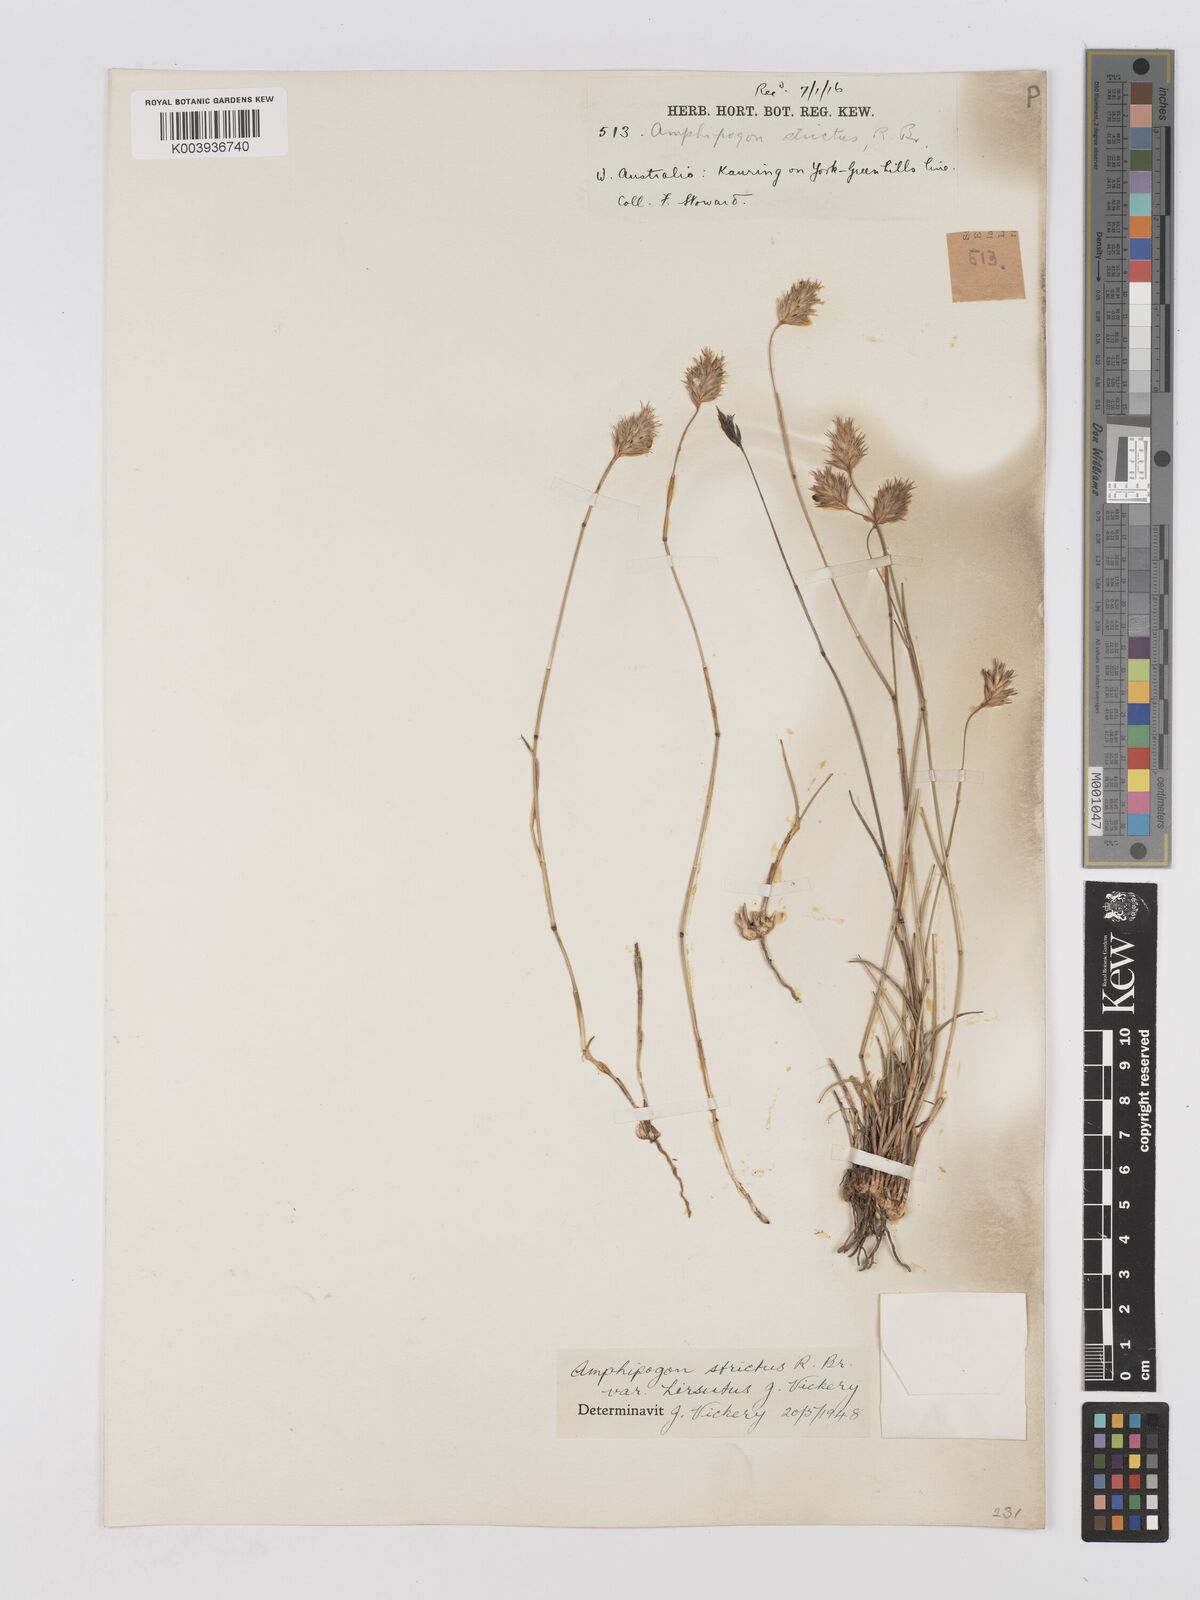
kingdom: Plantae
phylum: Tracheophyta
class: Liliopsida
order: Poales
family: Poaceae
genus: Amphipogon
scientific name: Amphipogon strictus
